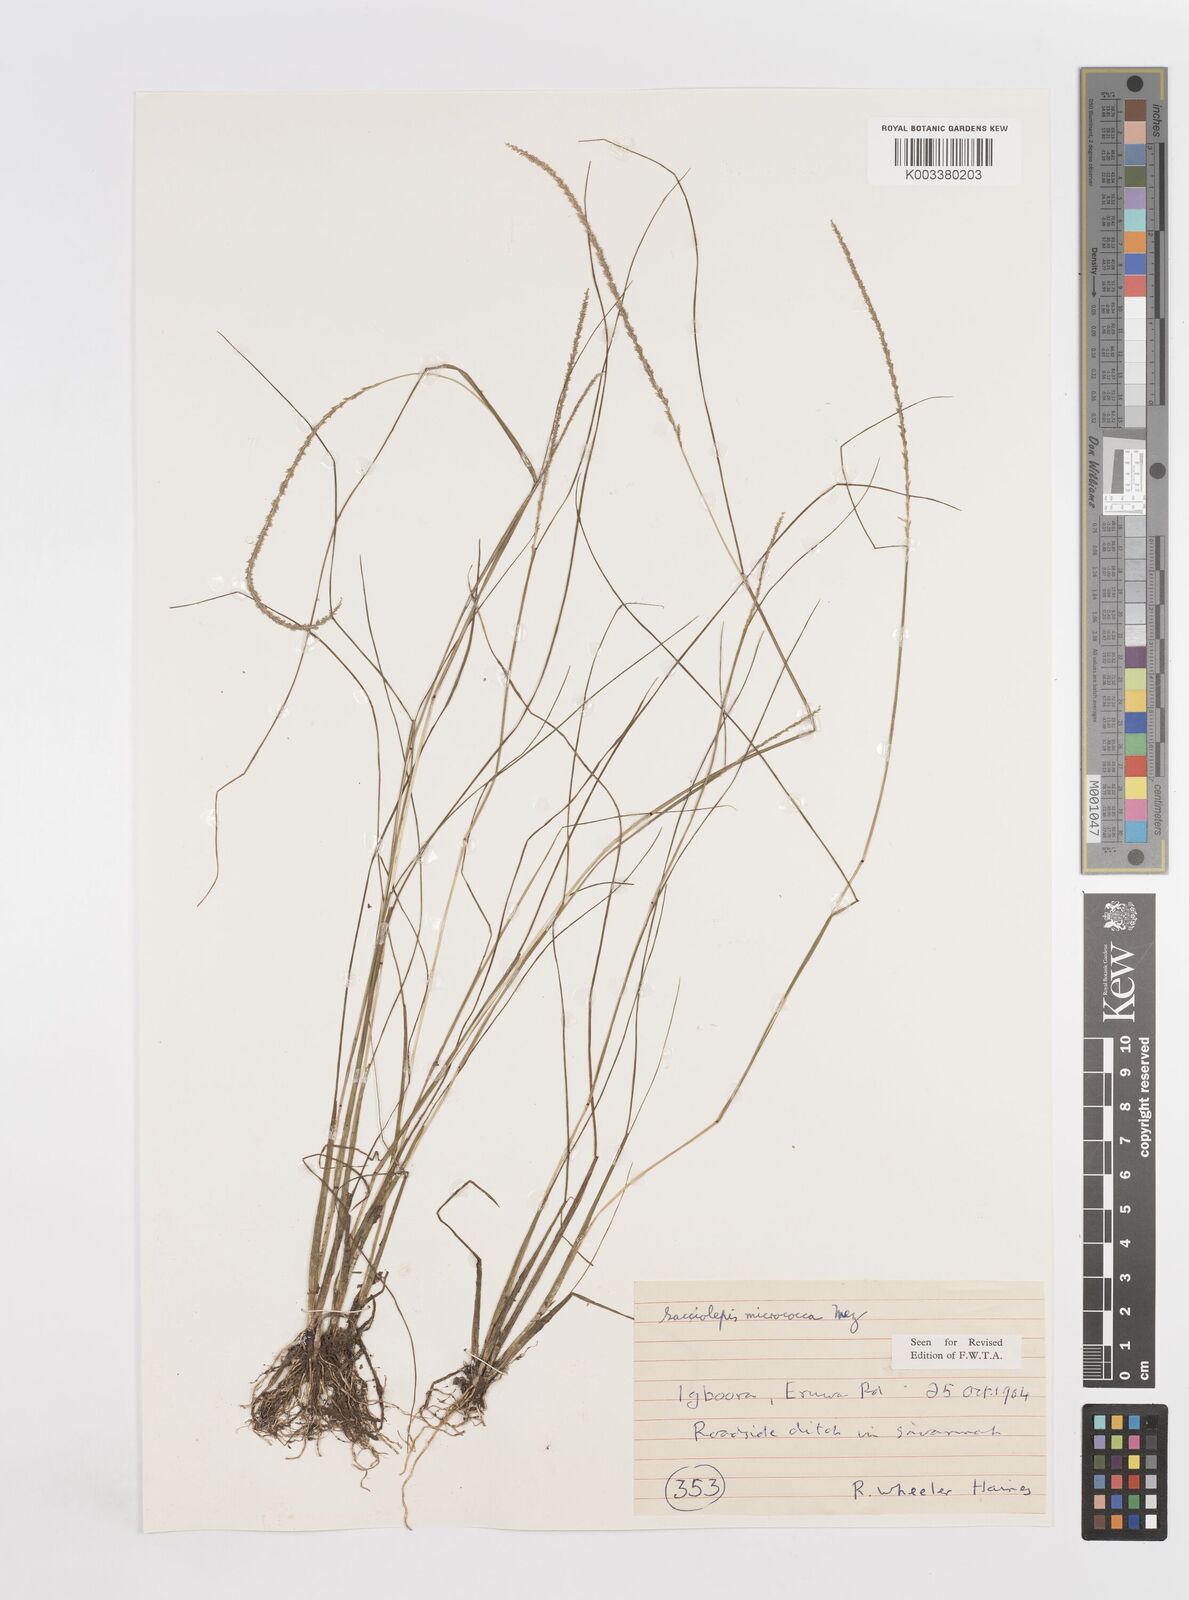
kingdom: Plantae
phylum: Tracheophyta
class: Liliopsida
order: Poales
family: Poaceae
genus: Sacciolepis
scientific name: Sacciolepis micrococca
